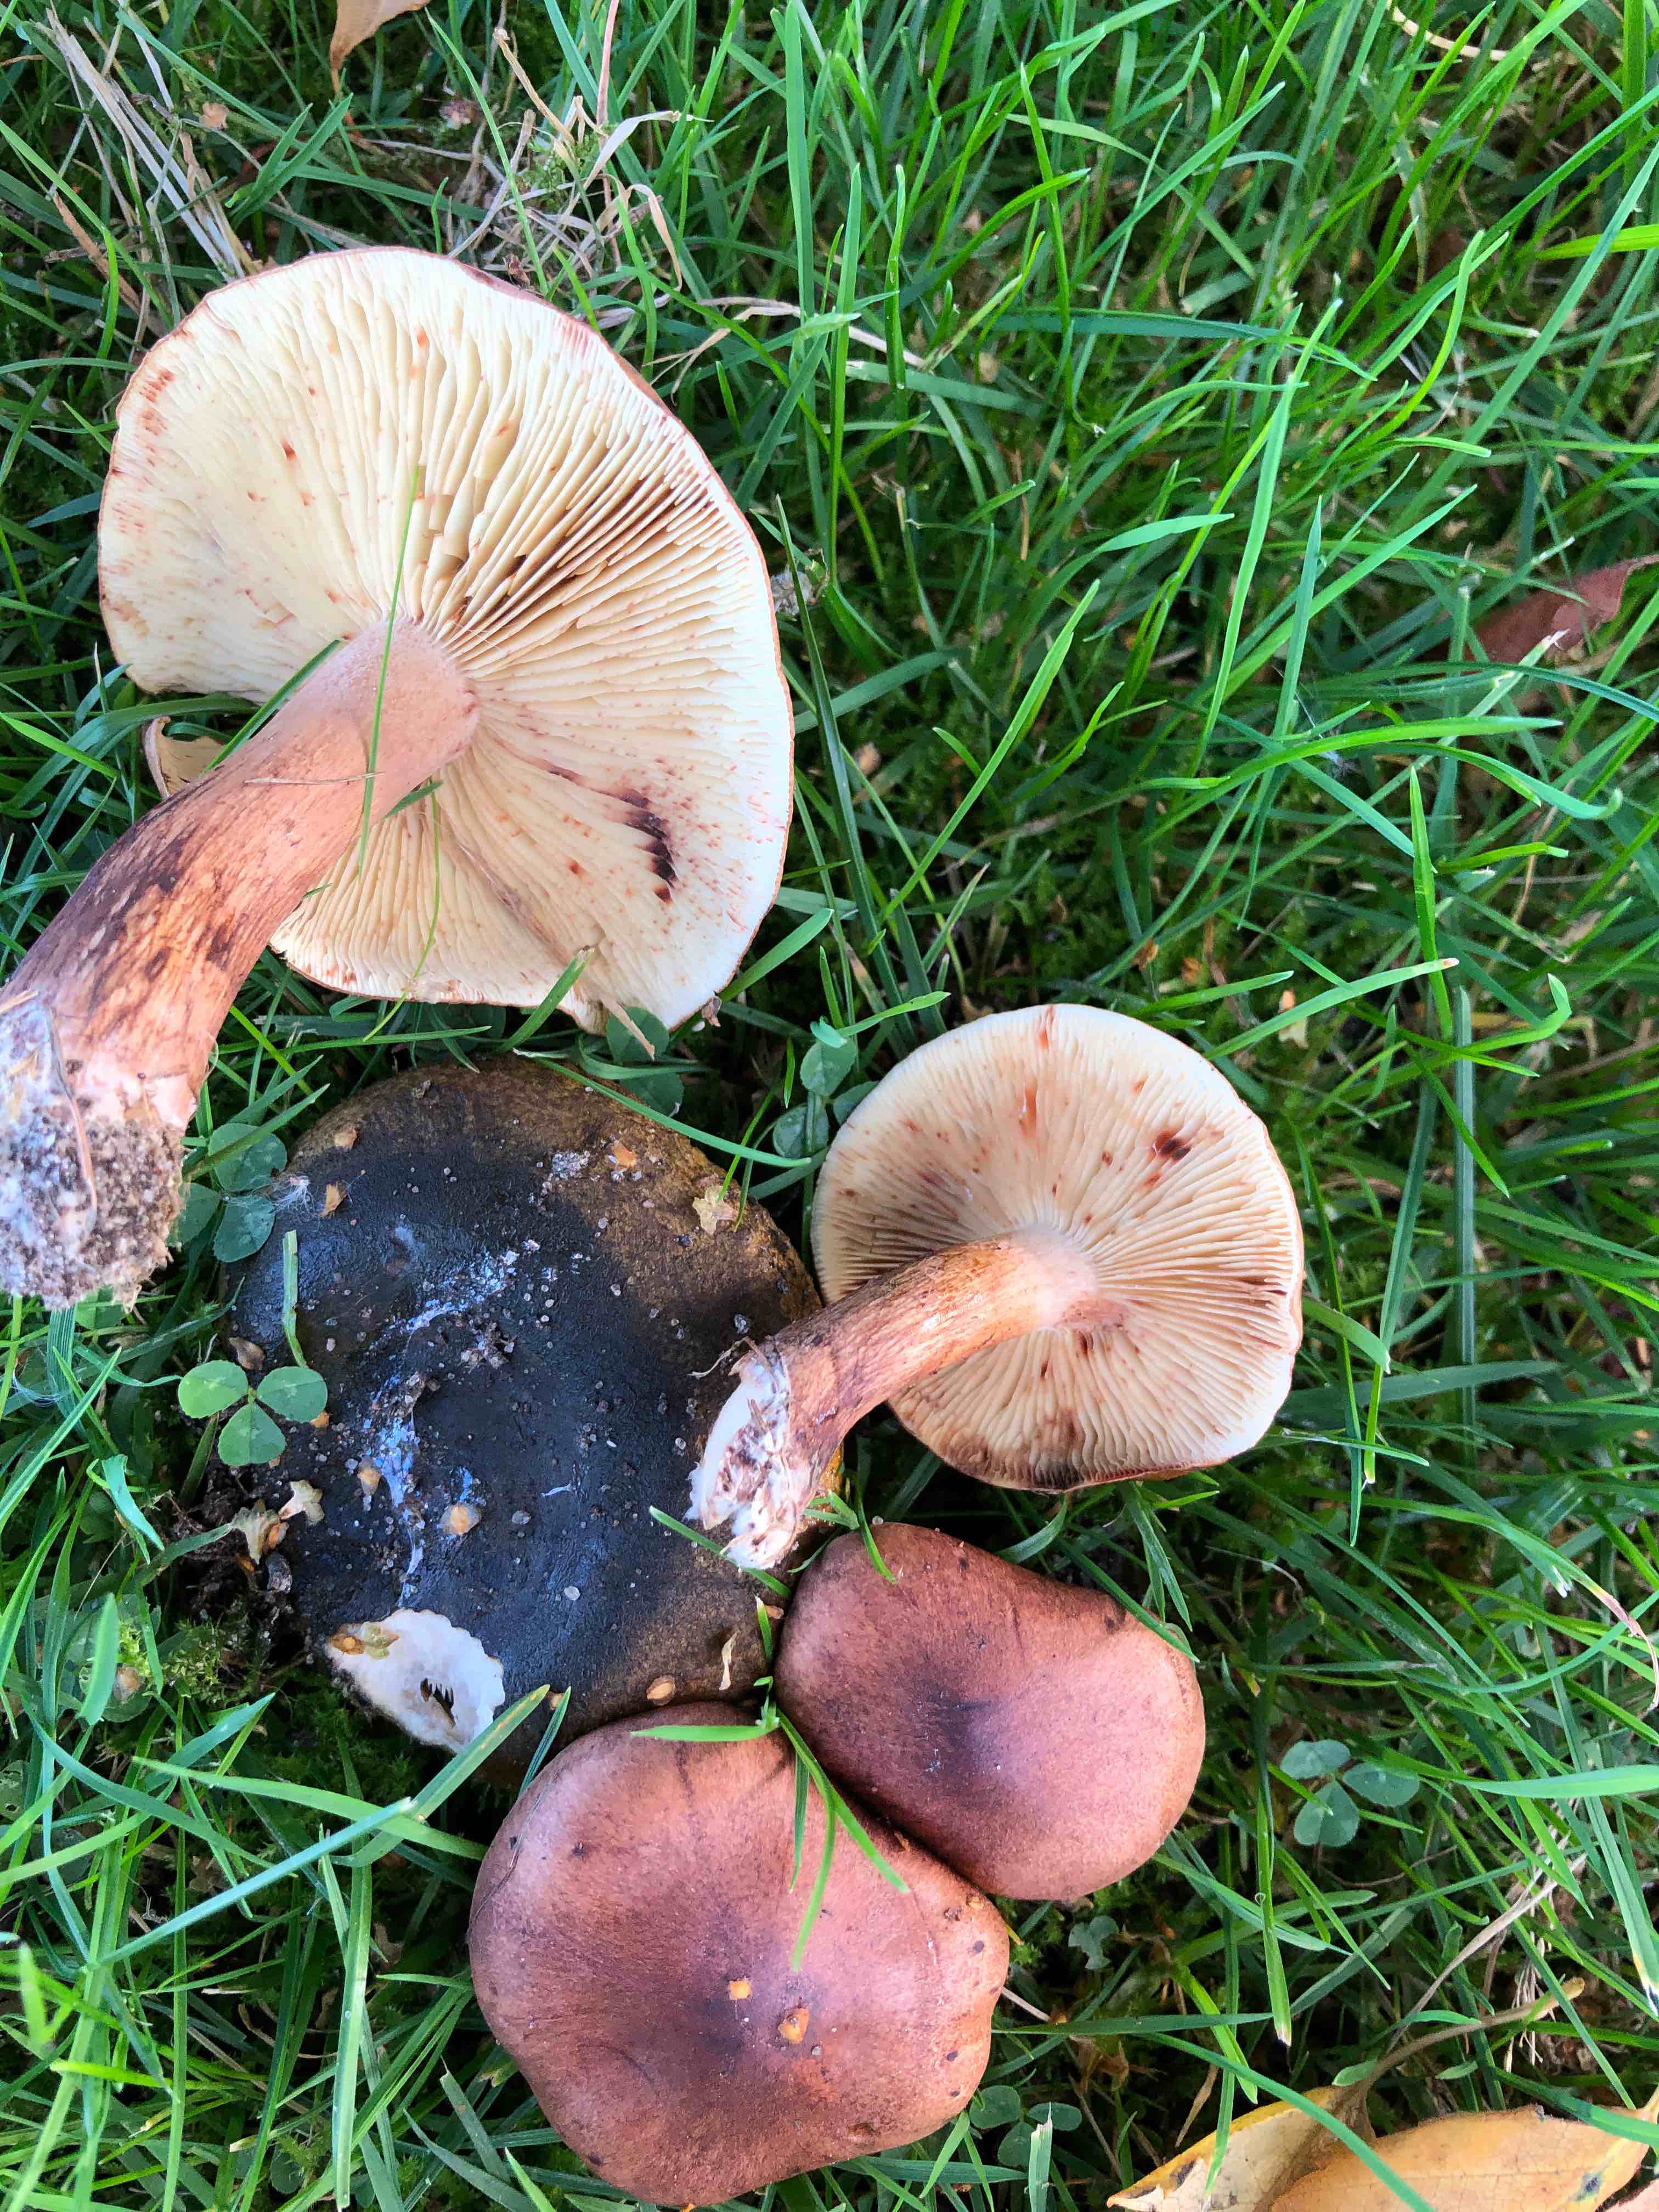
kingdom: Fungi
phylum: Basidiomycota
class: Agaricomycetes
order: Agaricales
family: Tricholomataceae
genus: Tricholoma
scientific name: Tricholoma fulvum
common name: birke-ridderhat
